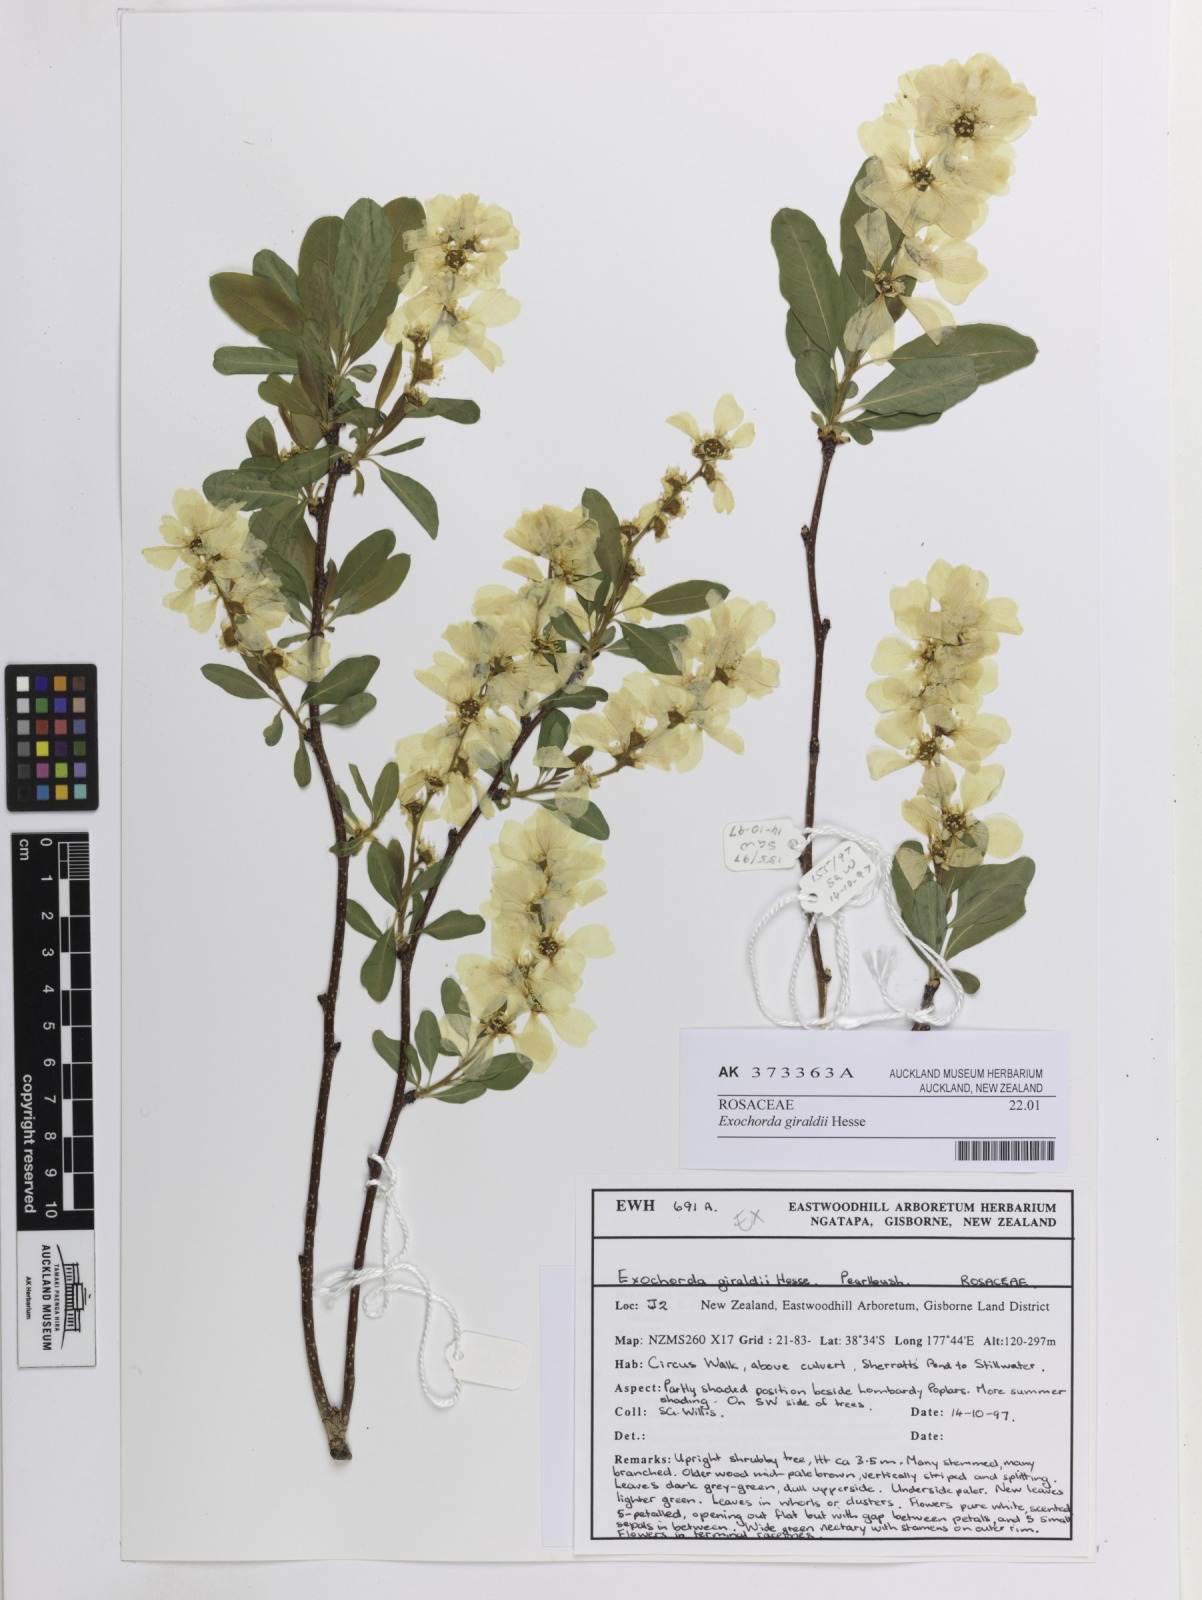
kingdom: Plantae
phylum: Tracheophyta
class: Magnoliopsida
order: Rosales
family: Rosaceae
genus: Exochorda
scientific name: Exochorda racemosa
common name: Common pearlbrush
